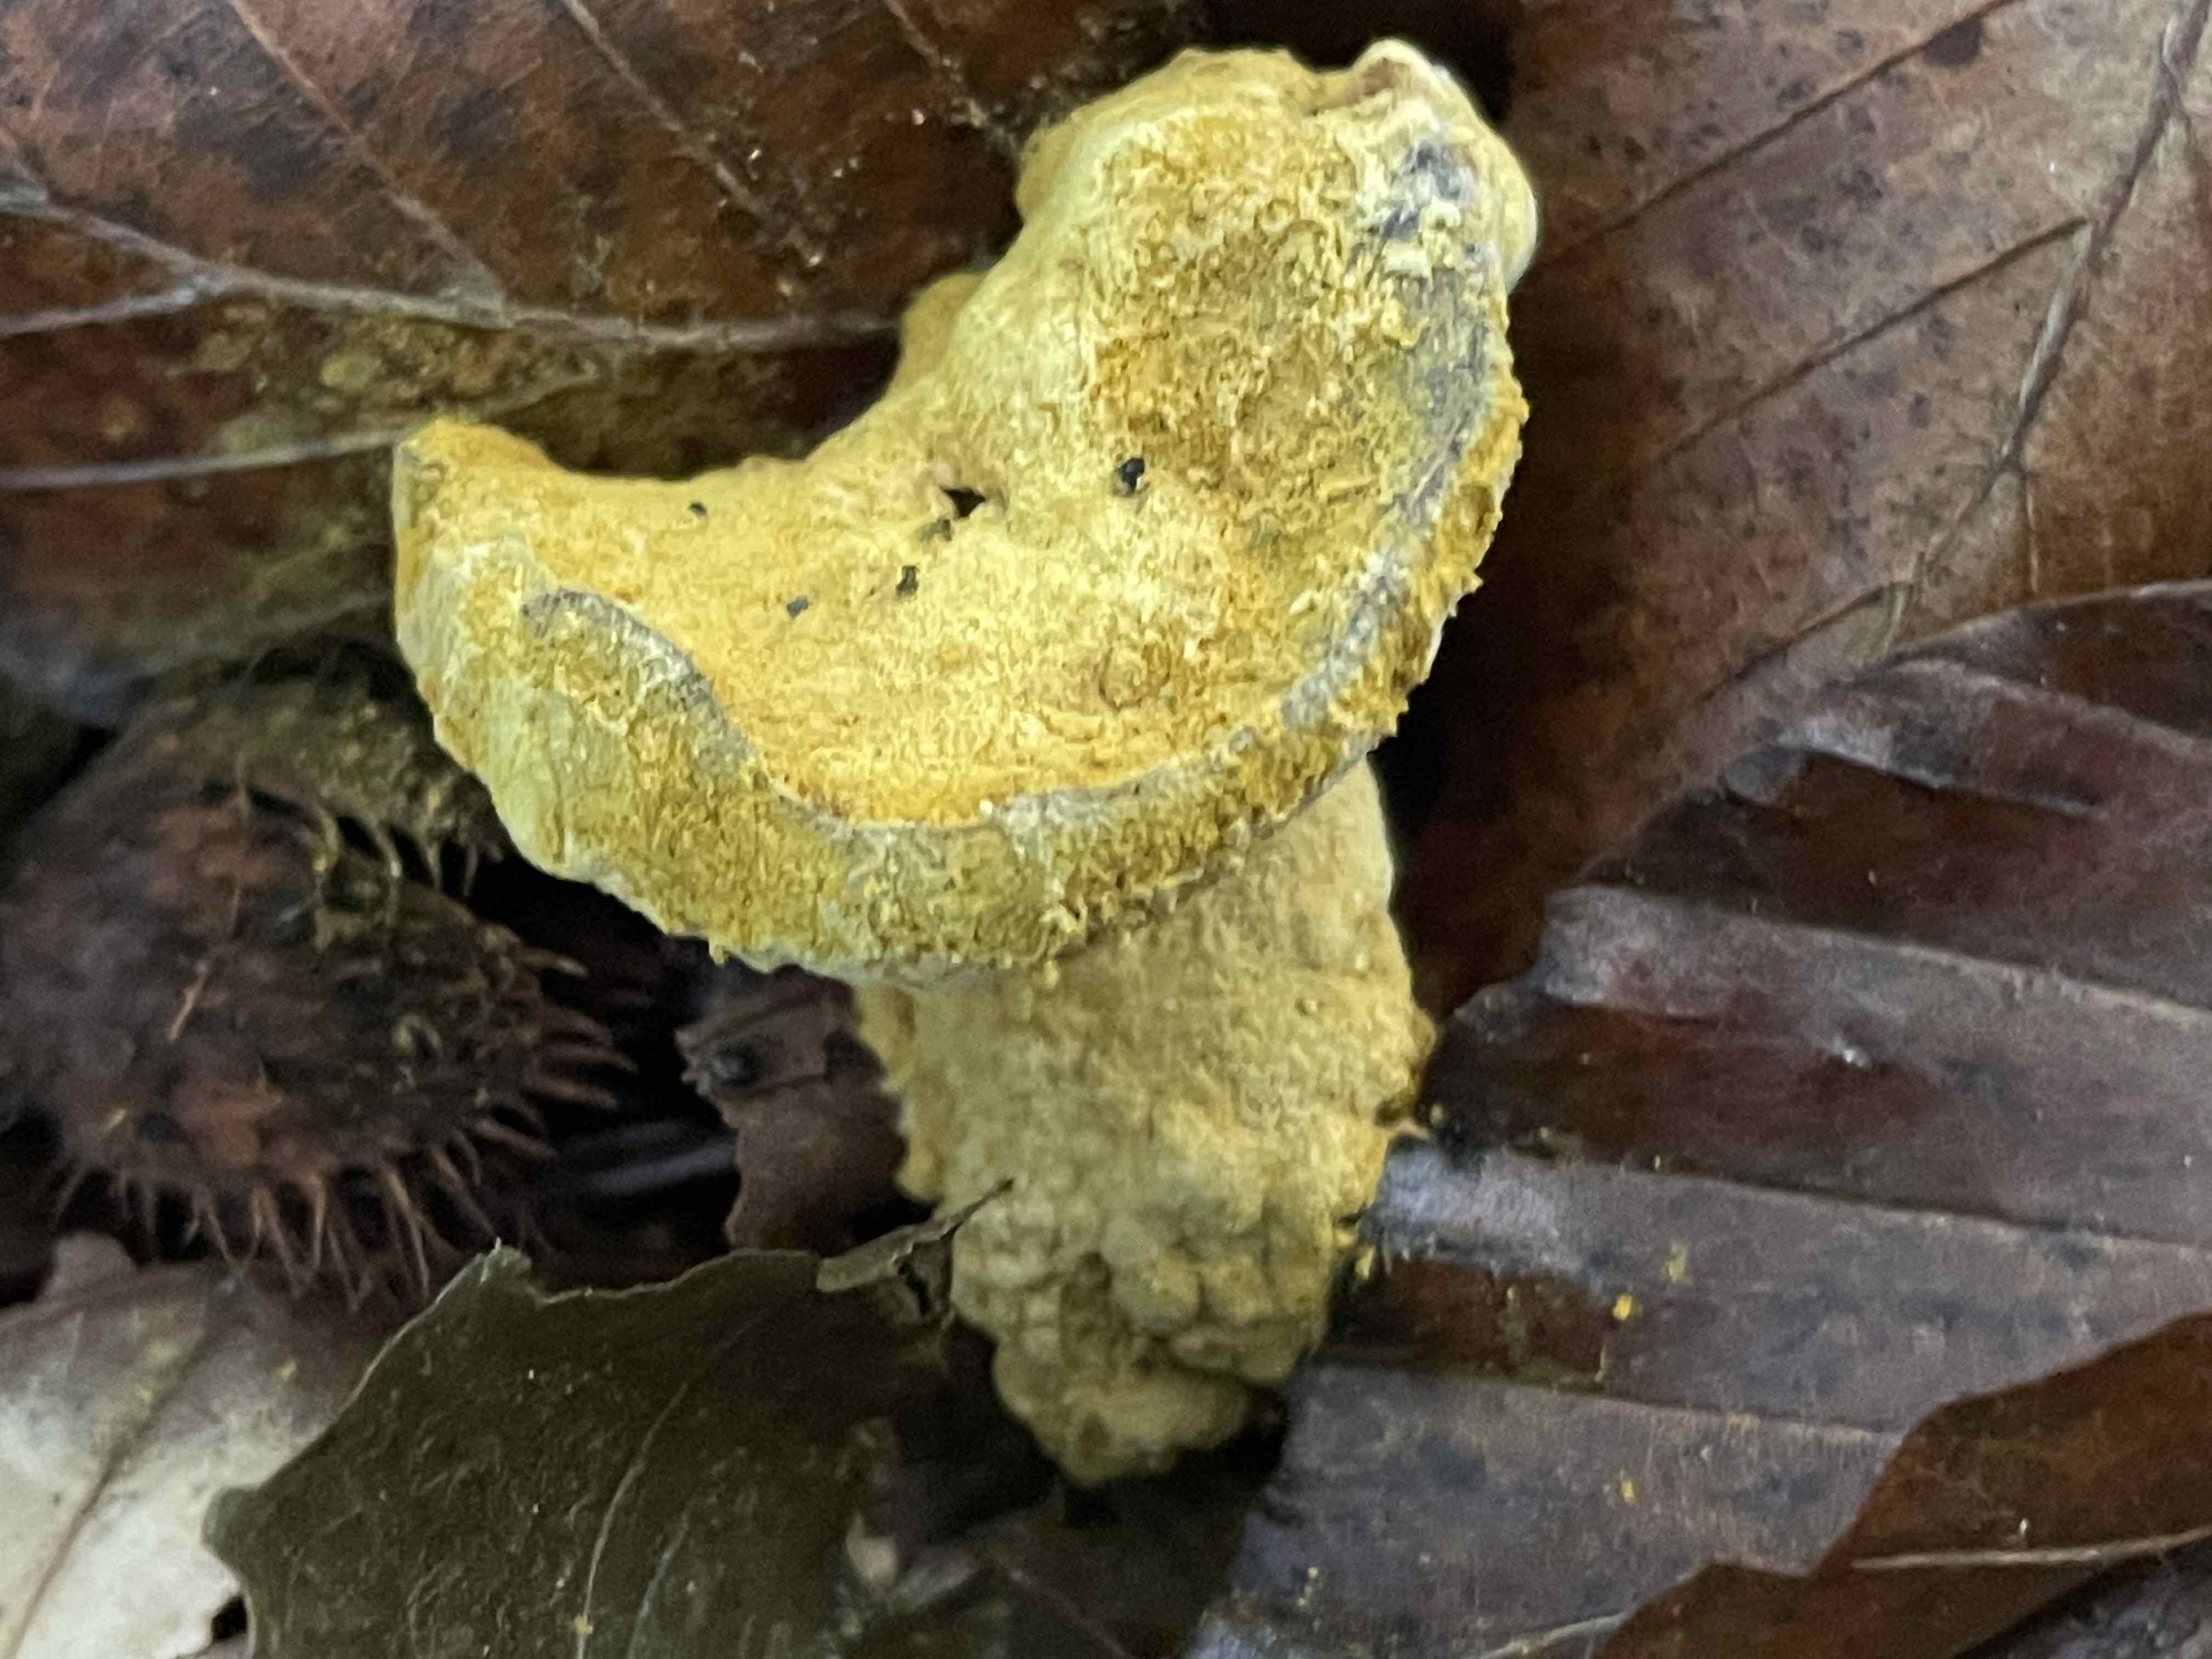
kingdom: Fungi
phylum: Ascomycota
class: Sordariomycetes
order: Hypocreales
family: Hypocreaceae
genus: Hypomyces
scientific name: Hypomyces microspermus
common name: dværgrørhat-snylteskorpe
